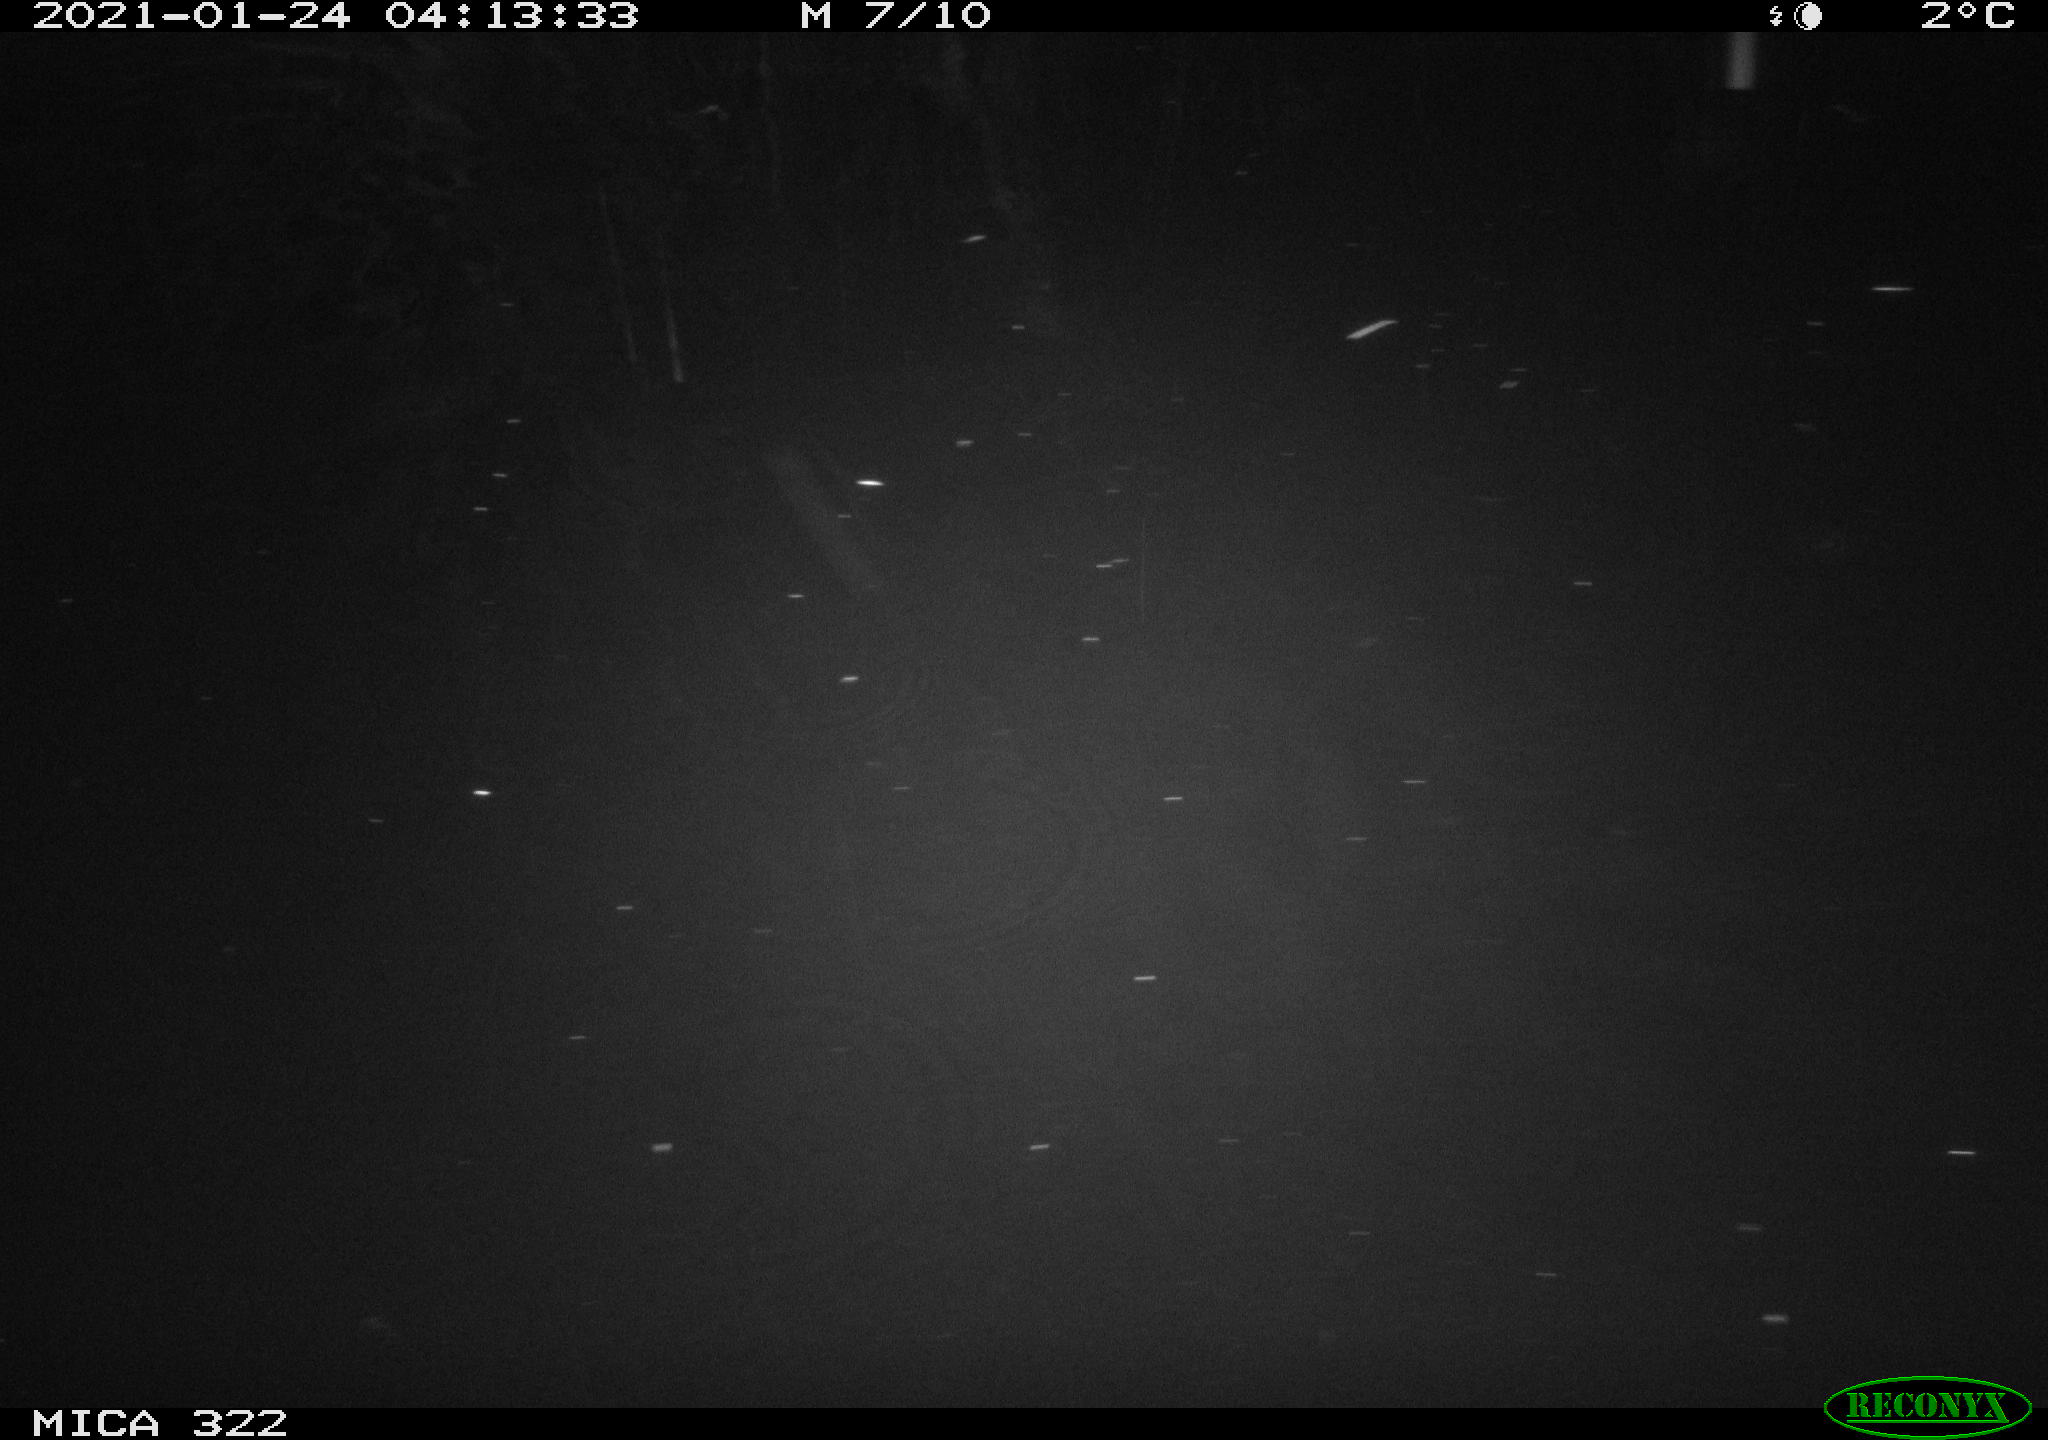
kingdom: Animalia
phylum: Chordata
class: Mammalia
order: Rodentia
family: Muridae
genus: Rattus
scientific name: Rattus norvegicus
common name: Brown rat
